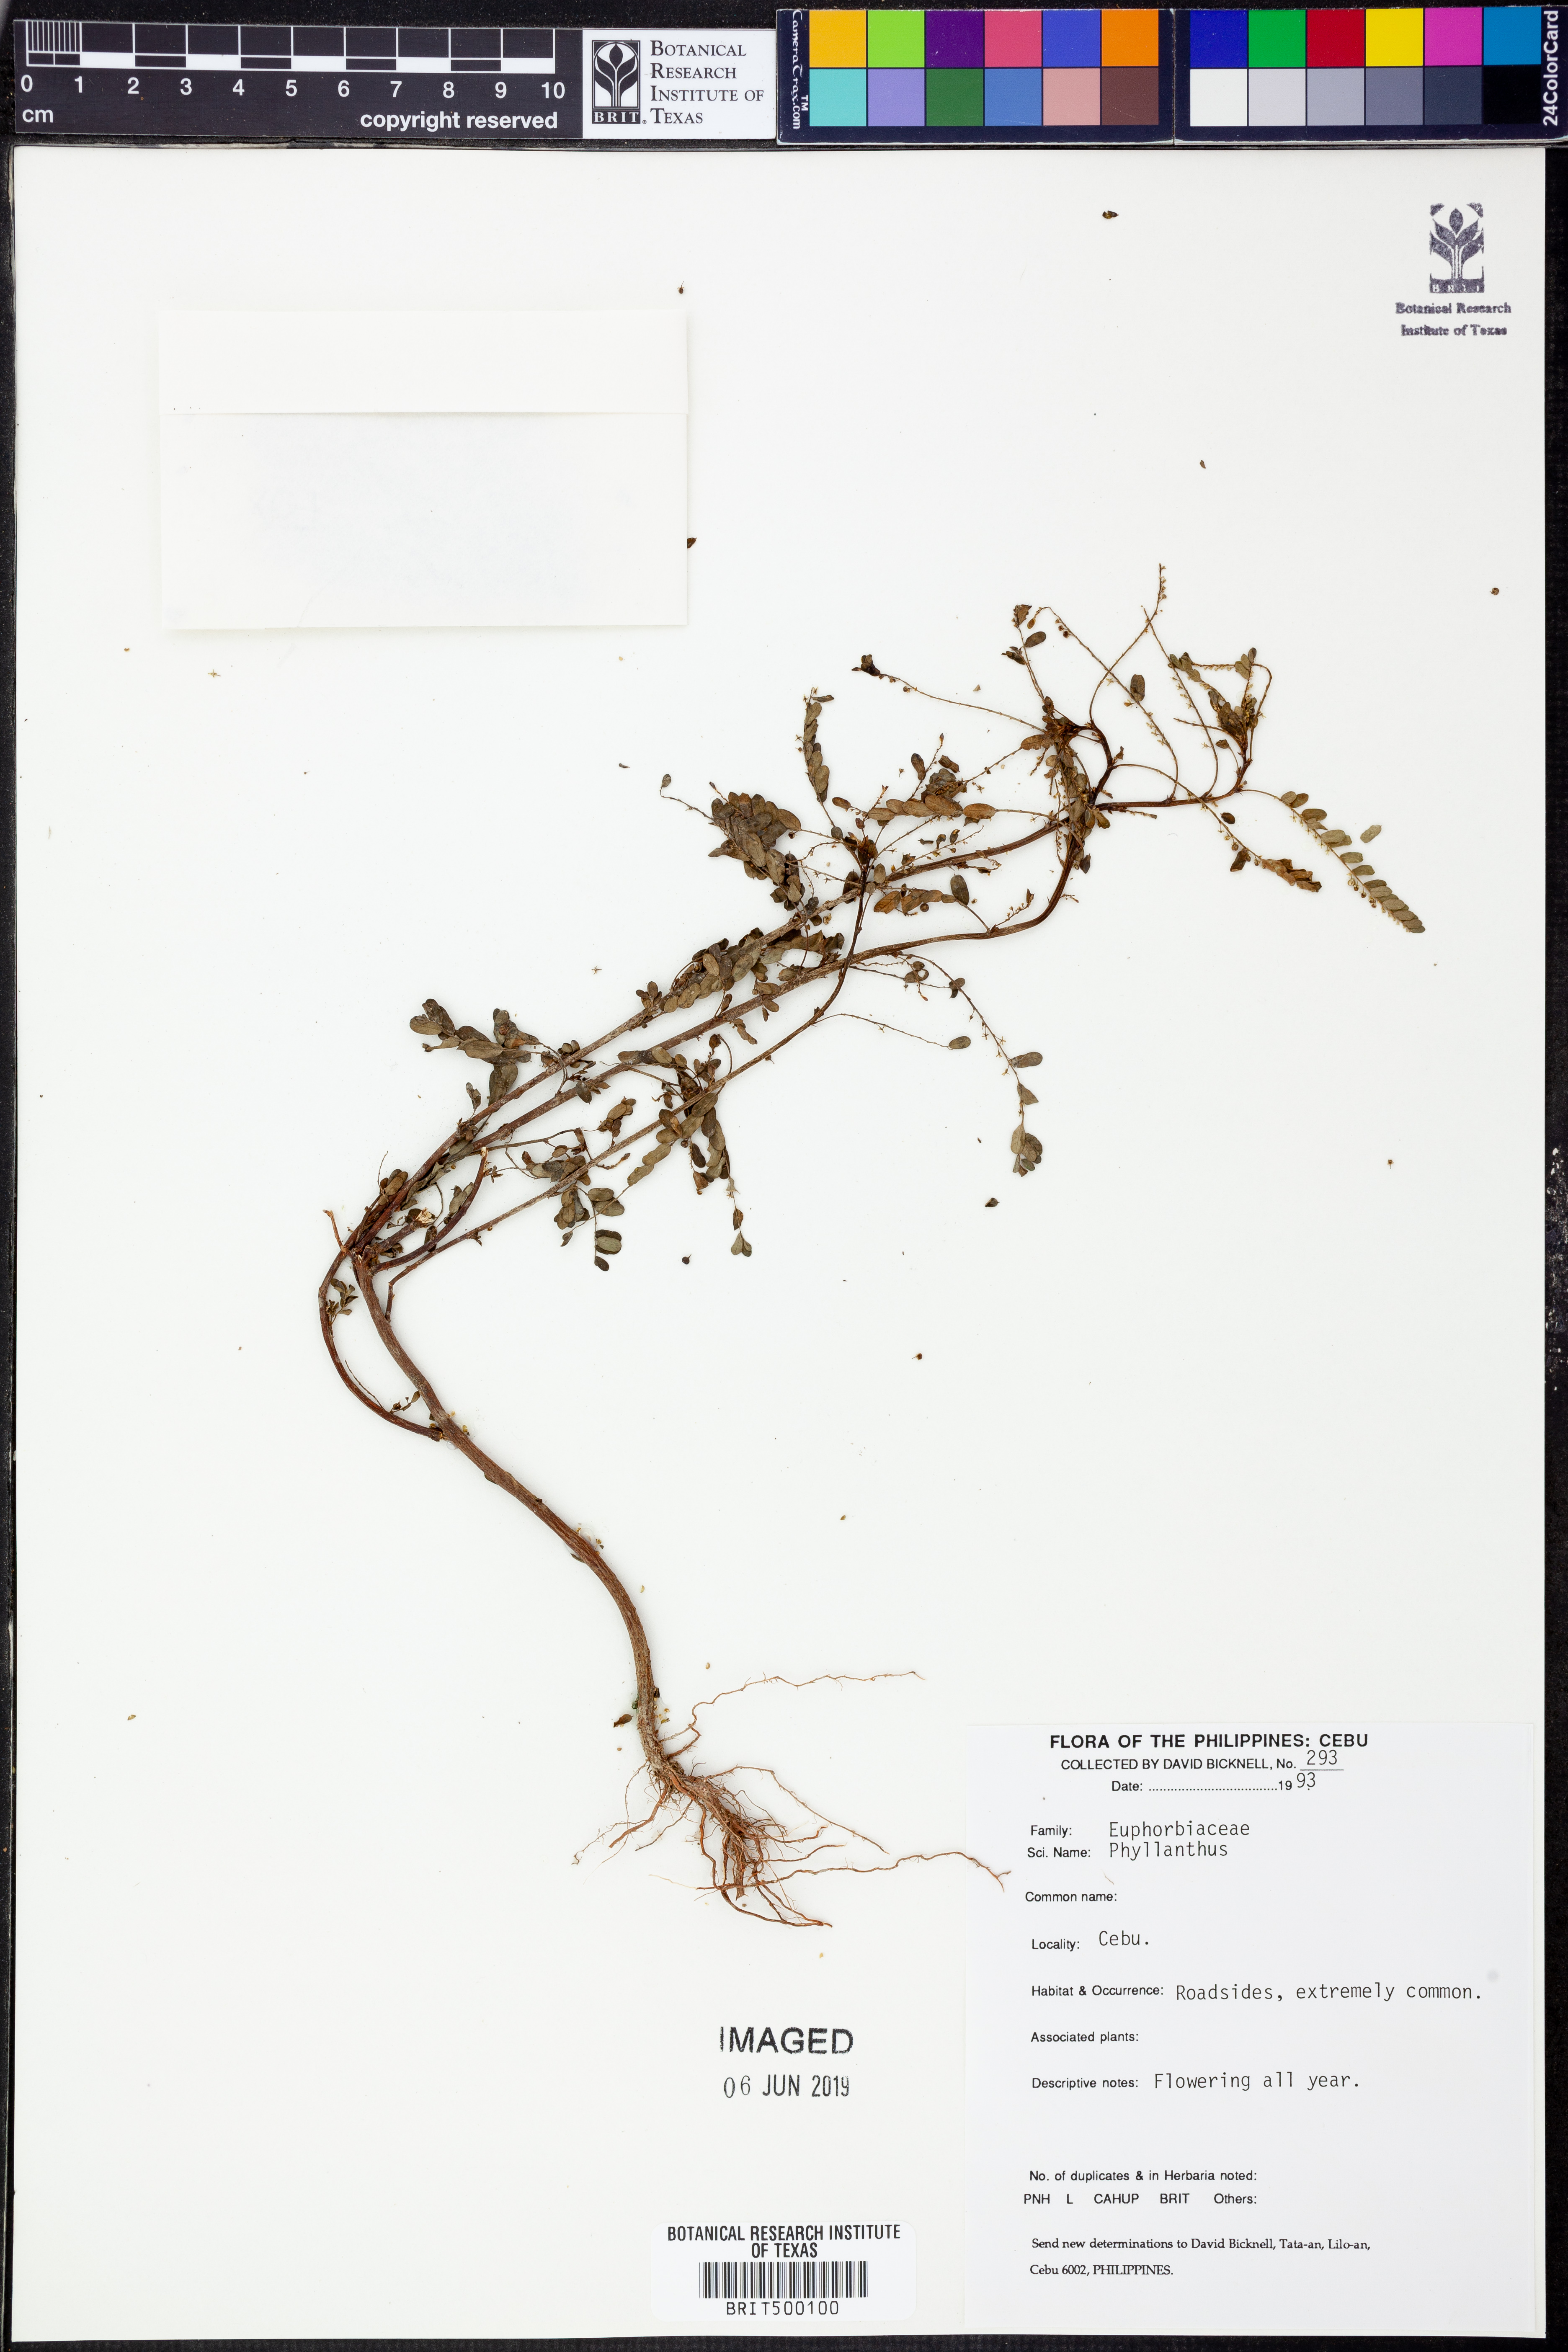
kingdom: Plantae
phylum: Tracheophyta
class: Magnoliopsida
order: Malpighiales
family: Phyllanthaceae
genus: Phyllanthus
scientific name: Phyllanthus
